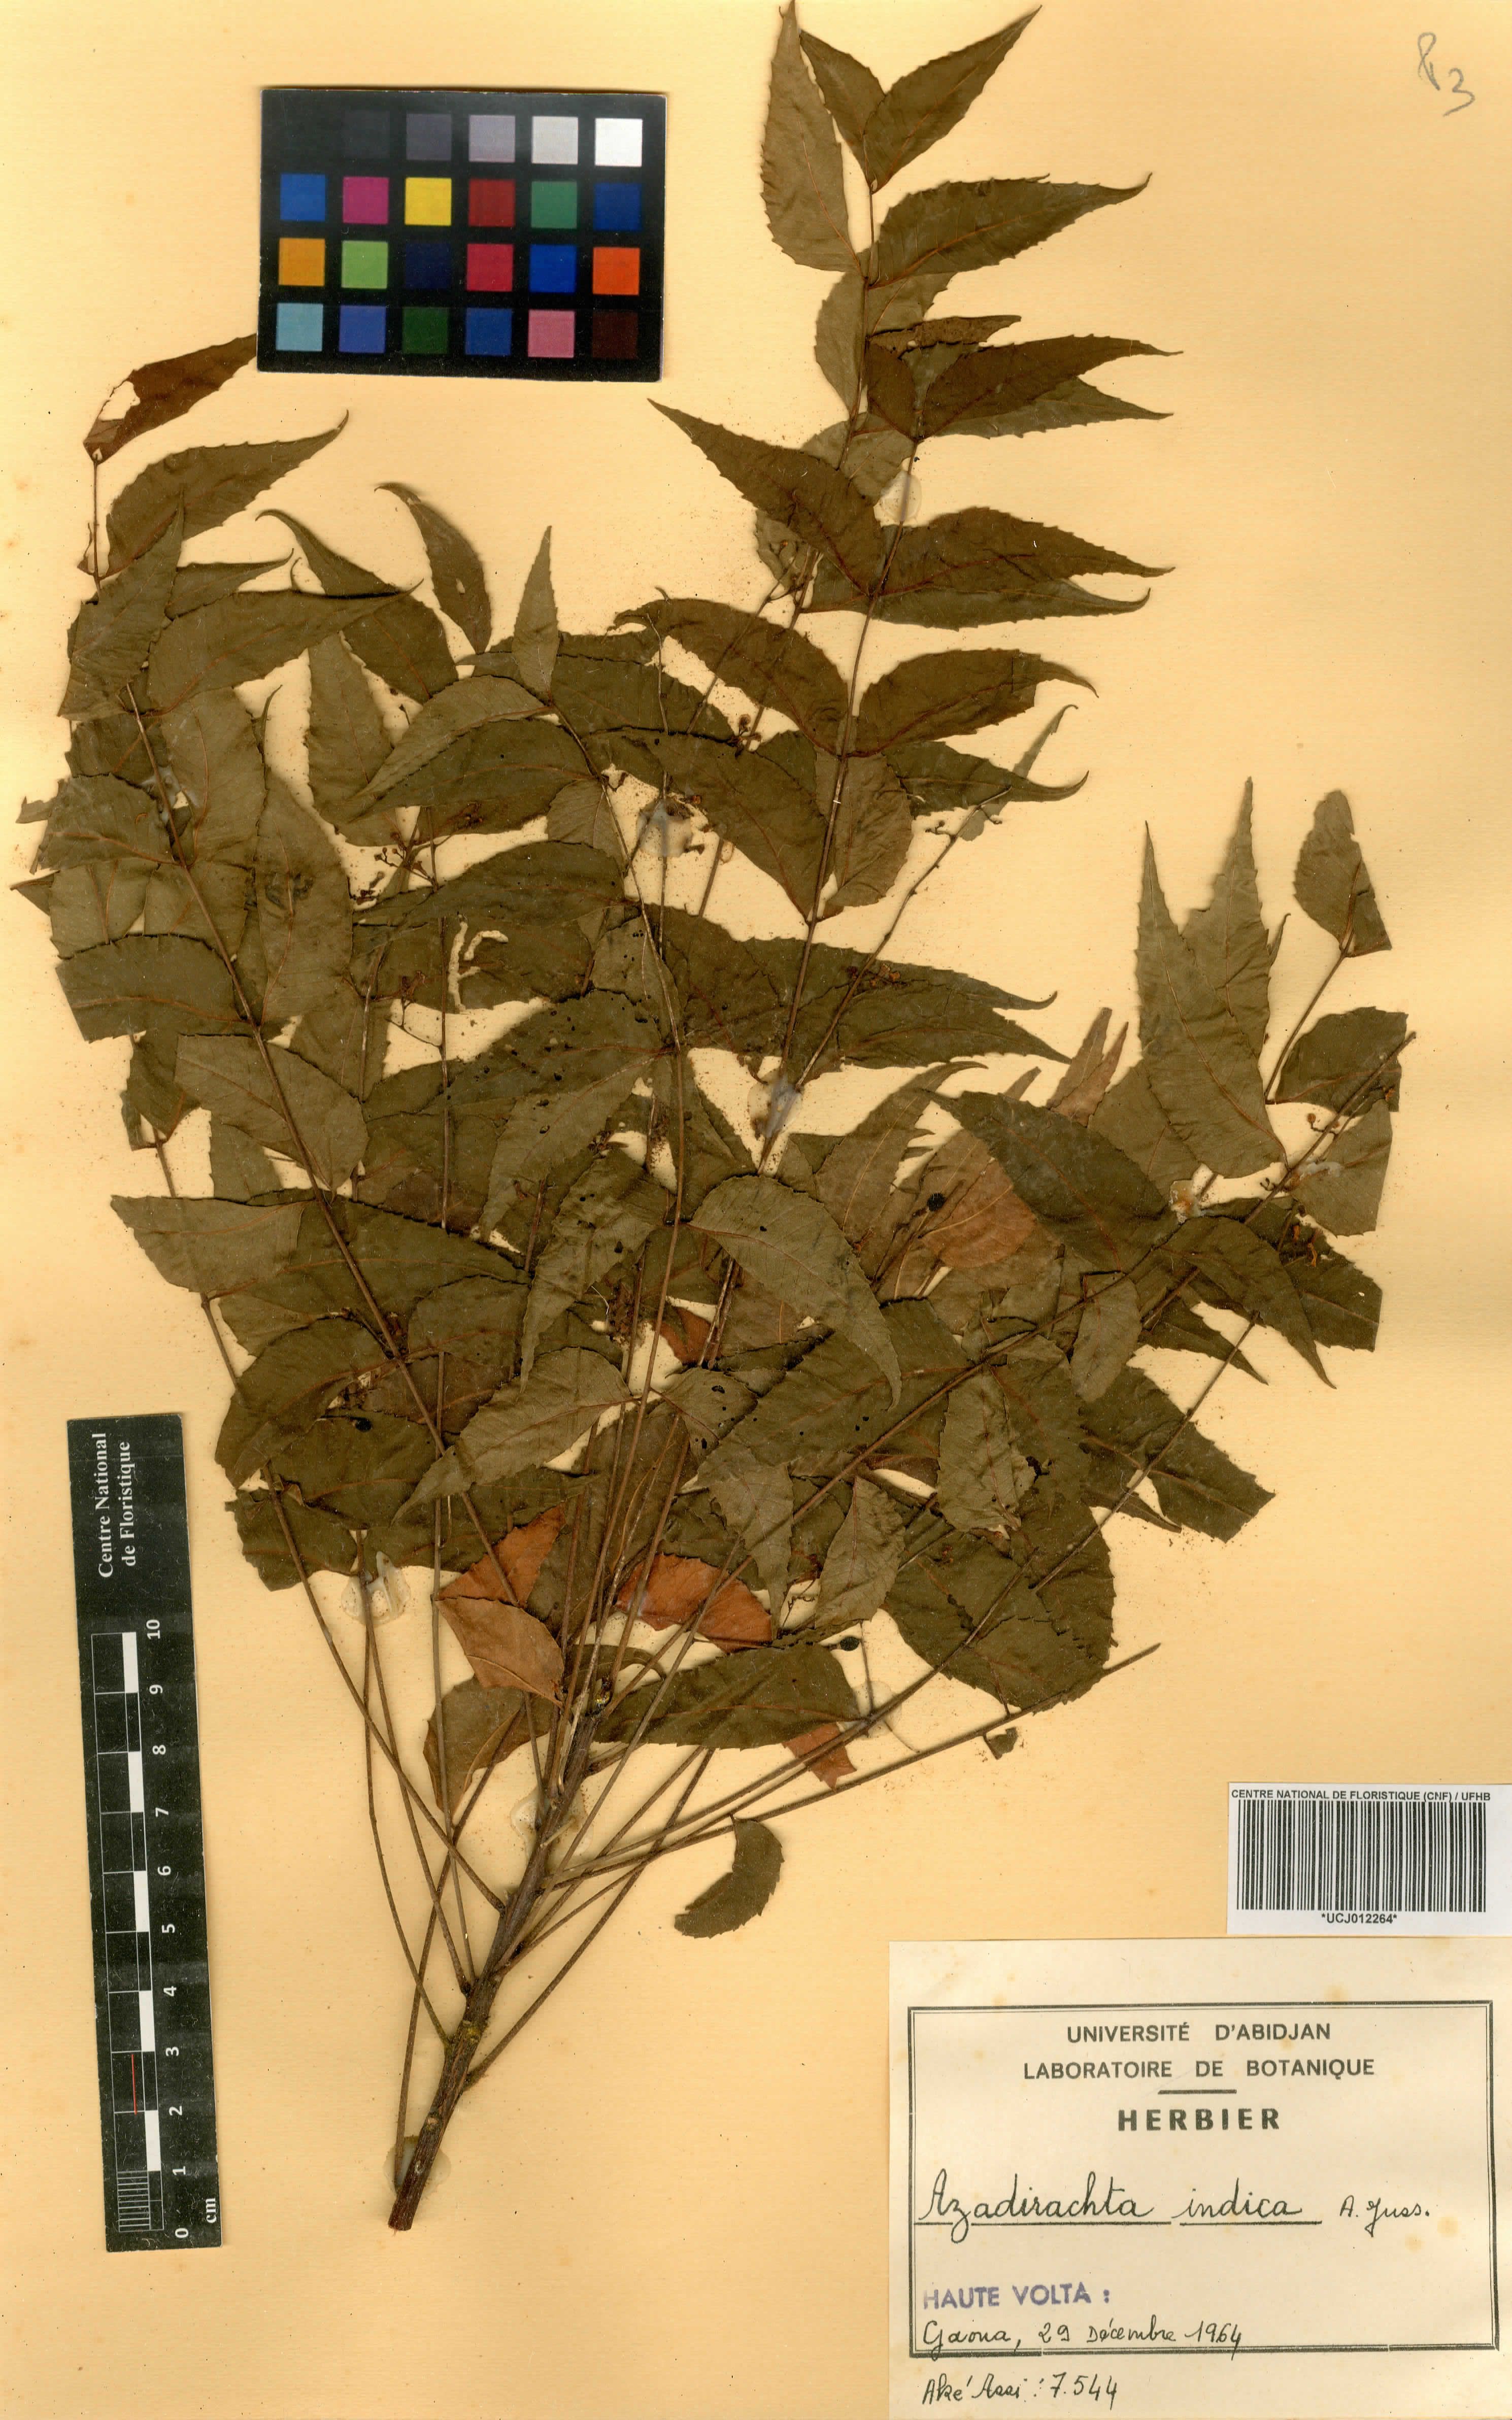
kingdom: Plantae
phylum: Tracheophyta
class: Magnoliopsida
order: Sapindales
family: Meliaceae
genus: Azadirachta
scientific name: Azadirachta indica
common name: Neem
